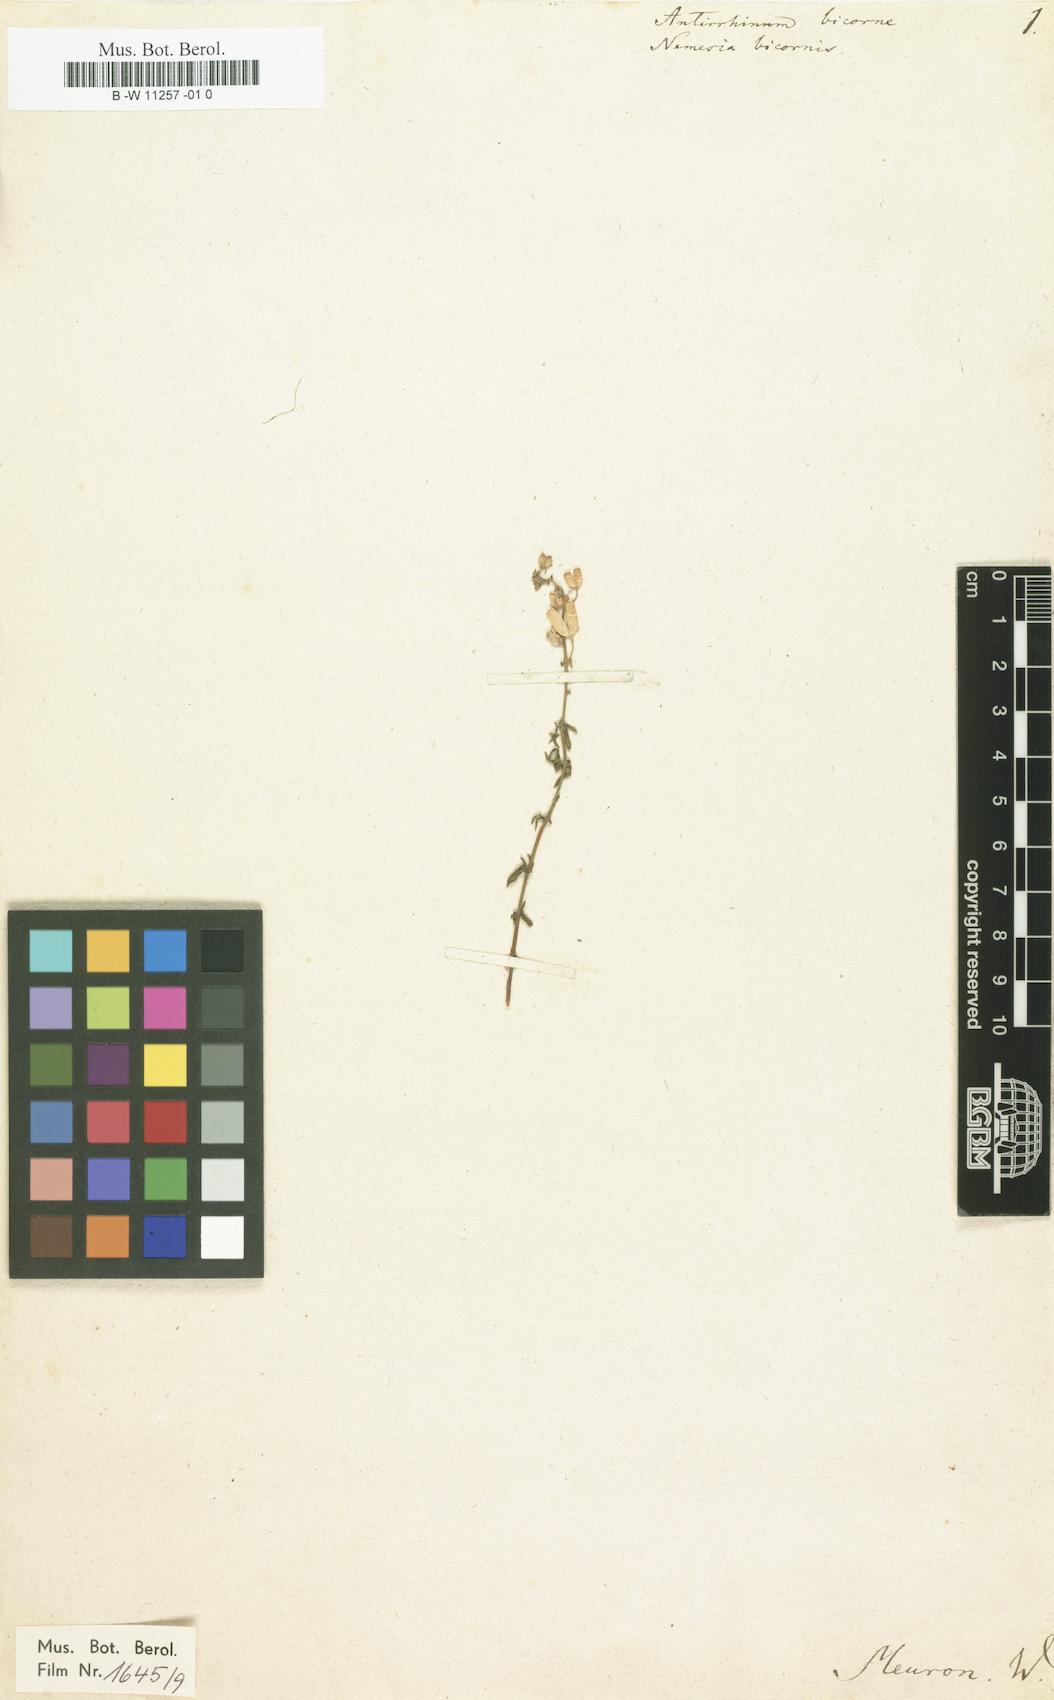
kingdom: Plantae
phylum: Tracheophyta
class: Magnoliopsida
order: Lamiales
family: Scrophulariaceae
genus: Nemesia
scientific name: Nemesia bicornis
